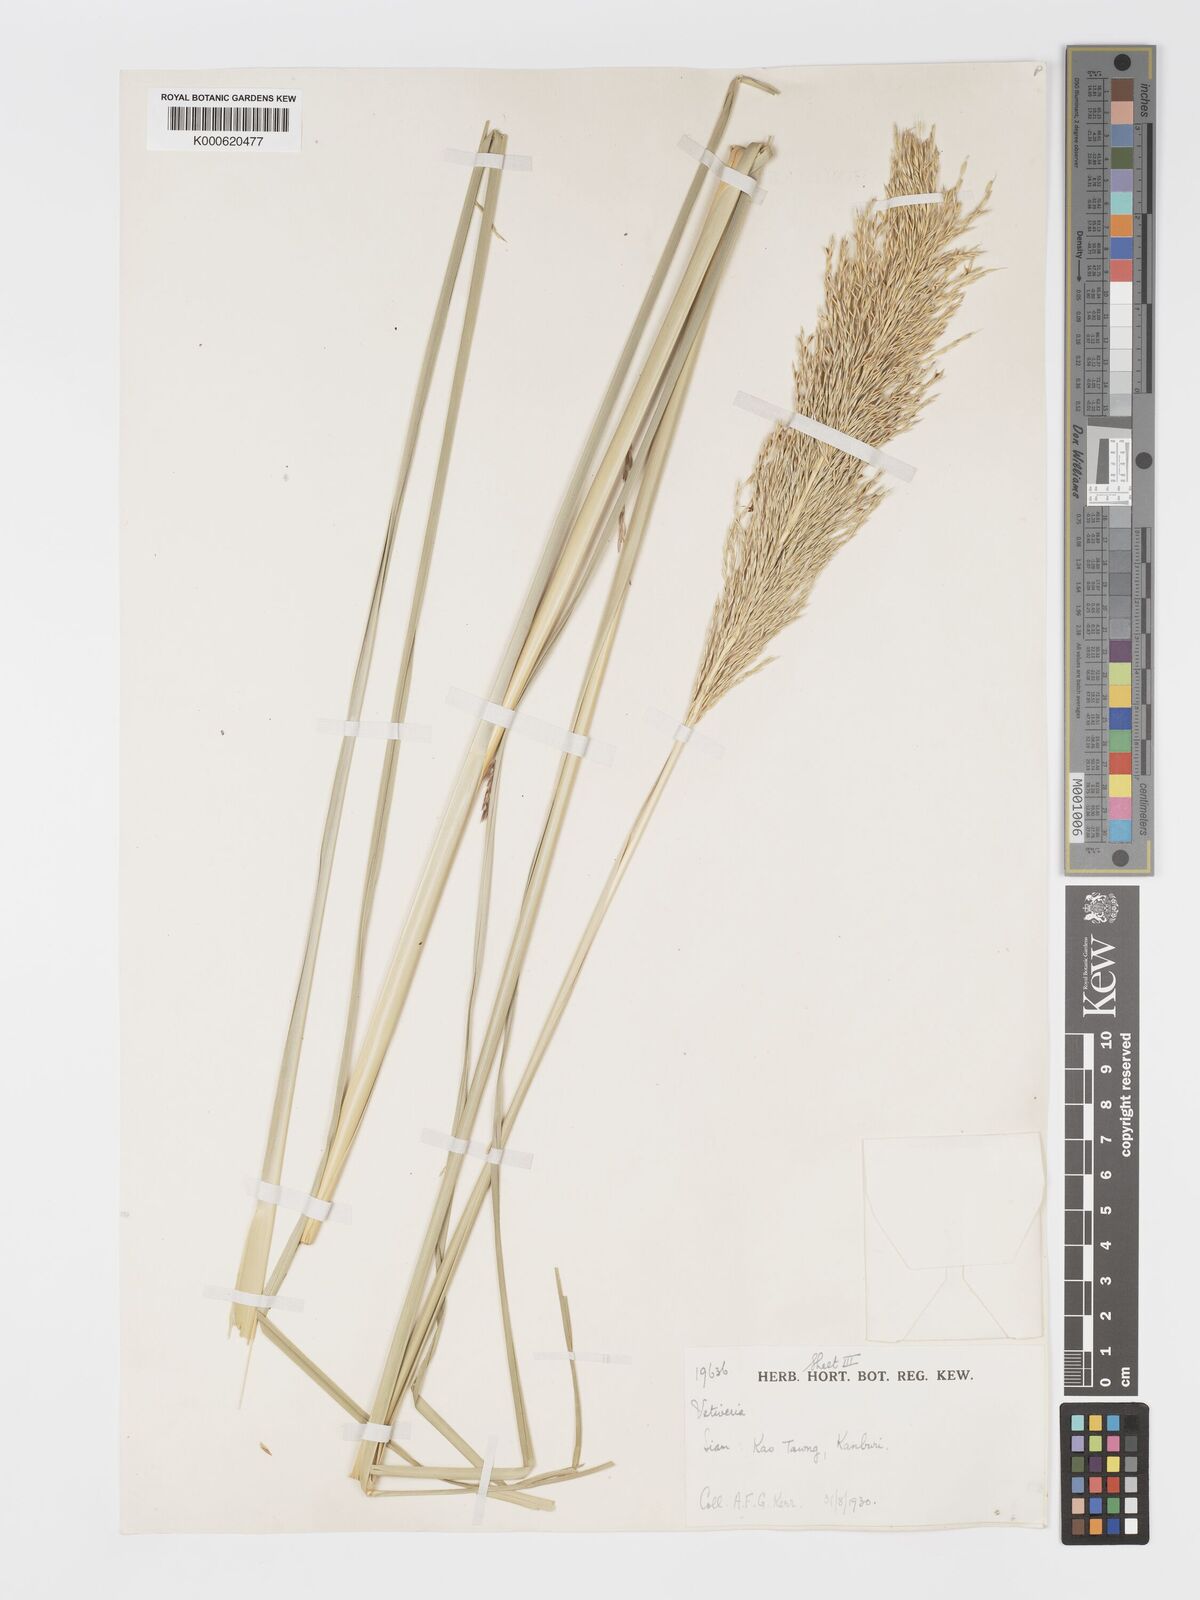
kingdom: Plantae
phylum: Tracheophyta
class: Liliopsida
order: Poales
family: Poaceae
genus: Chrysopogon
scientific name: Chrysopogon zizanioides
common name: False beardgrass
